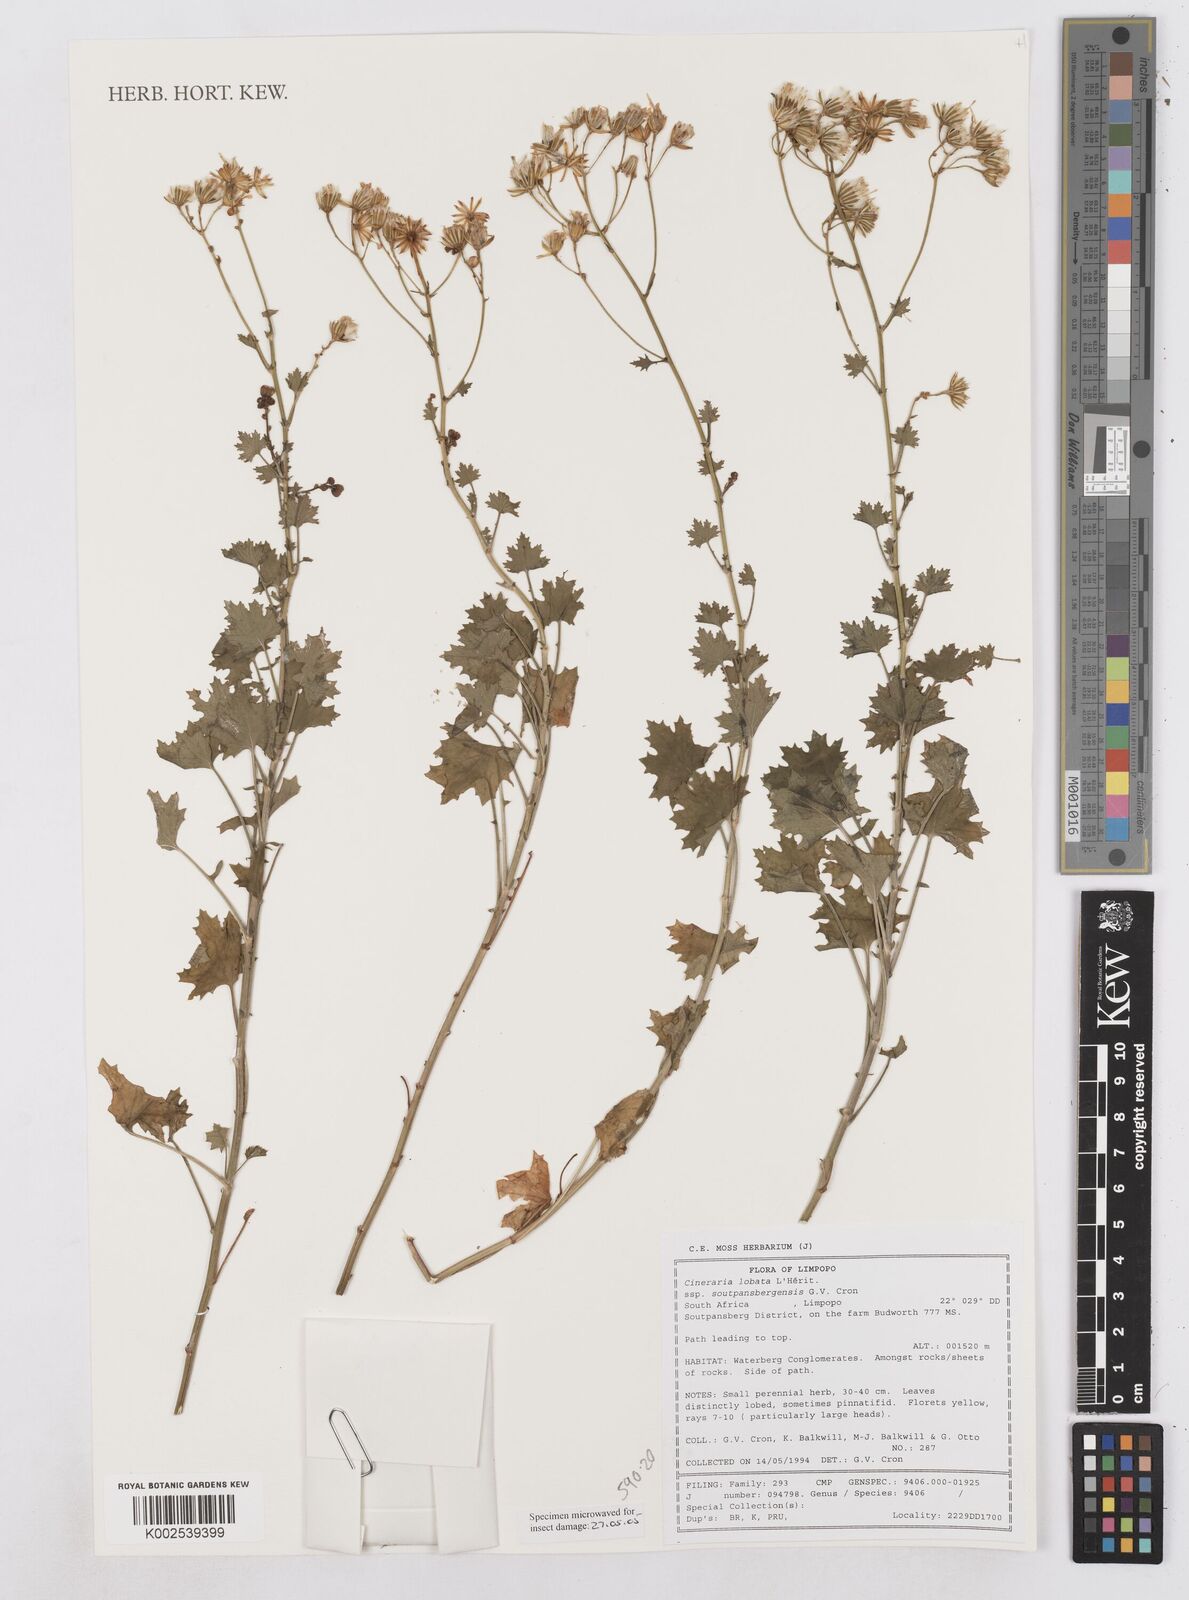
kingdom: Plantae
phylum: Tracheophyta
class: Magnoliopsida
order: Asterales
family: Asteraceae
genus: Cineraria
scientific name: Cineraria
